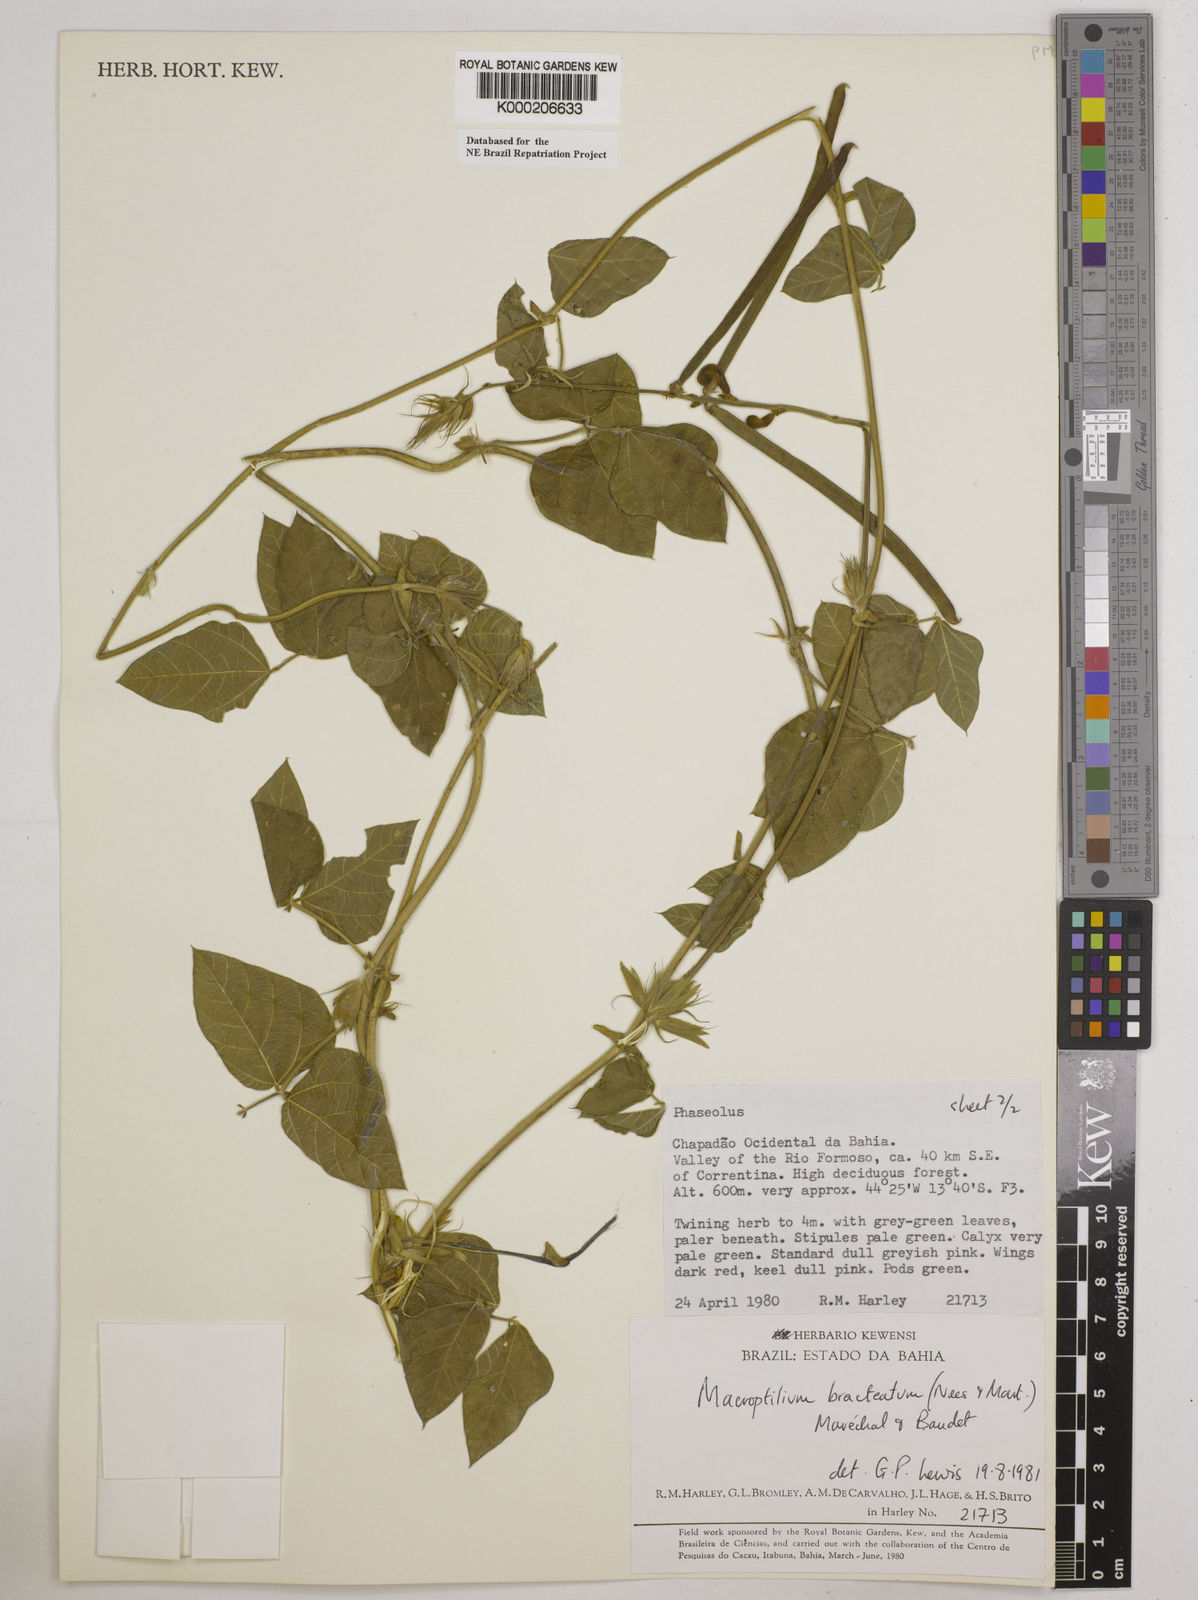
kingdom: Plantae
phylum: Tracheophyta
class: Magnoliopsida
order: Fabales
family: Fabaceae
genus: Macroptilium
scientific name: Macroptilium
